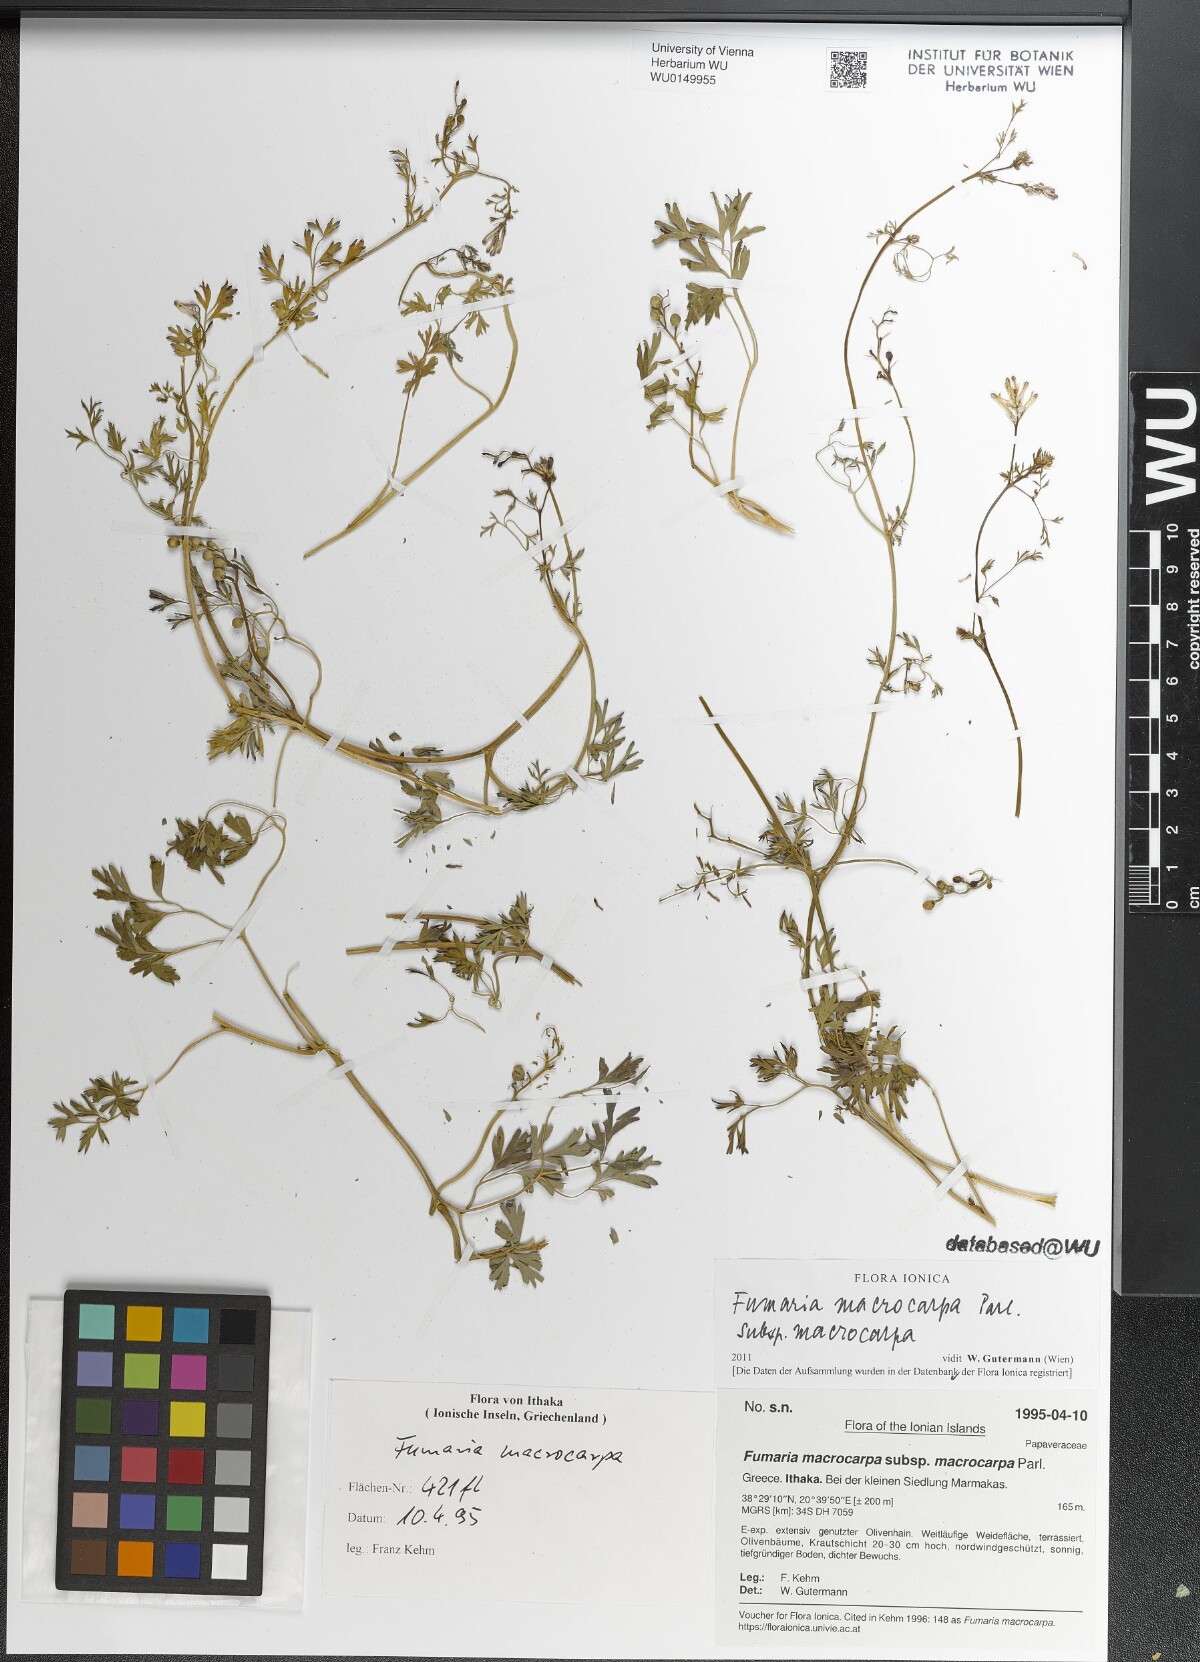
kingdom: Plantae
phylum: Tracheophyta
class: Magnoliopsida
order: Ranunculales
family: Papaveraceae
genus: Fumaria
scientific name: Fumaria macrocarpa
